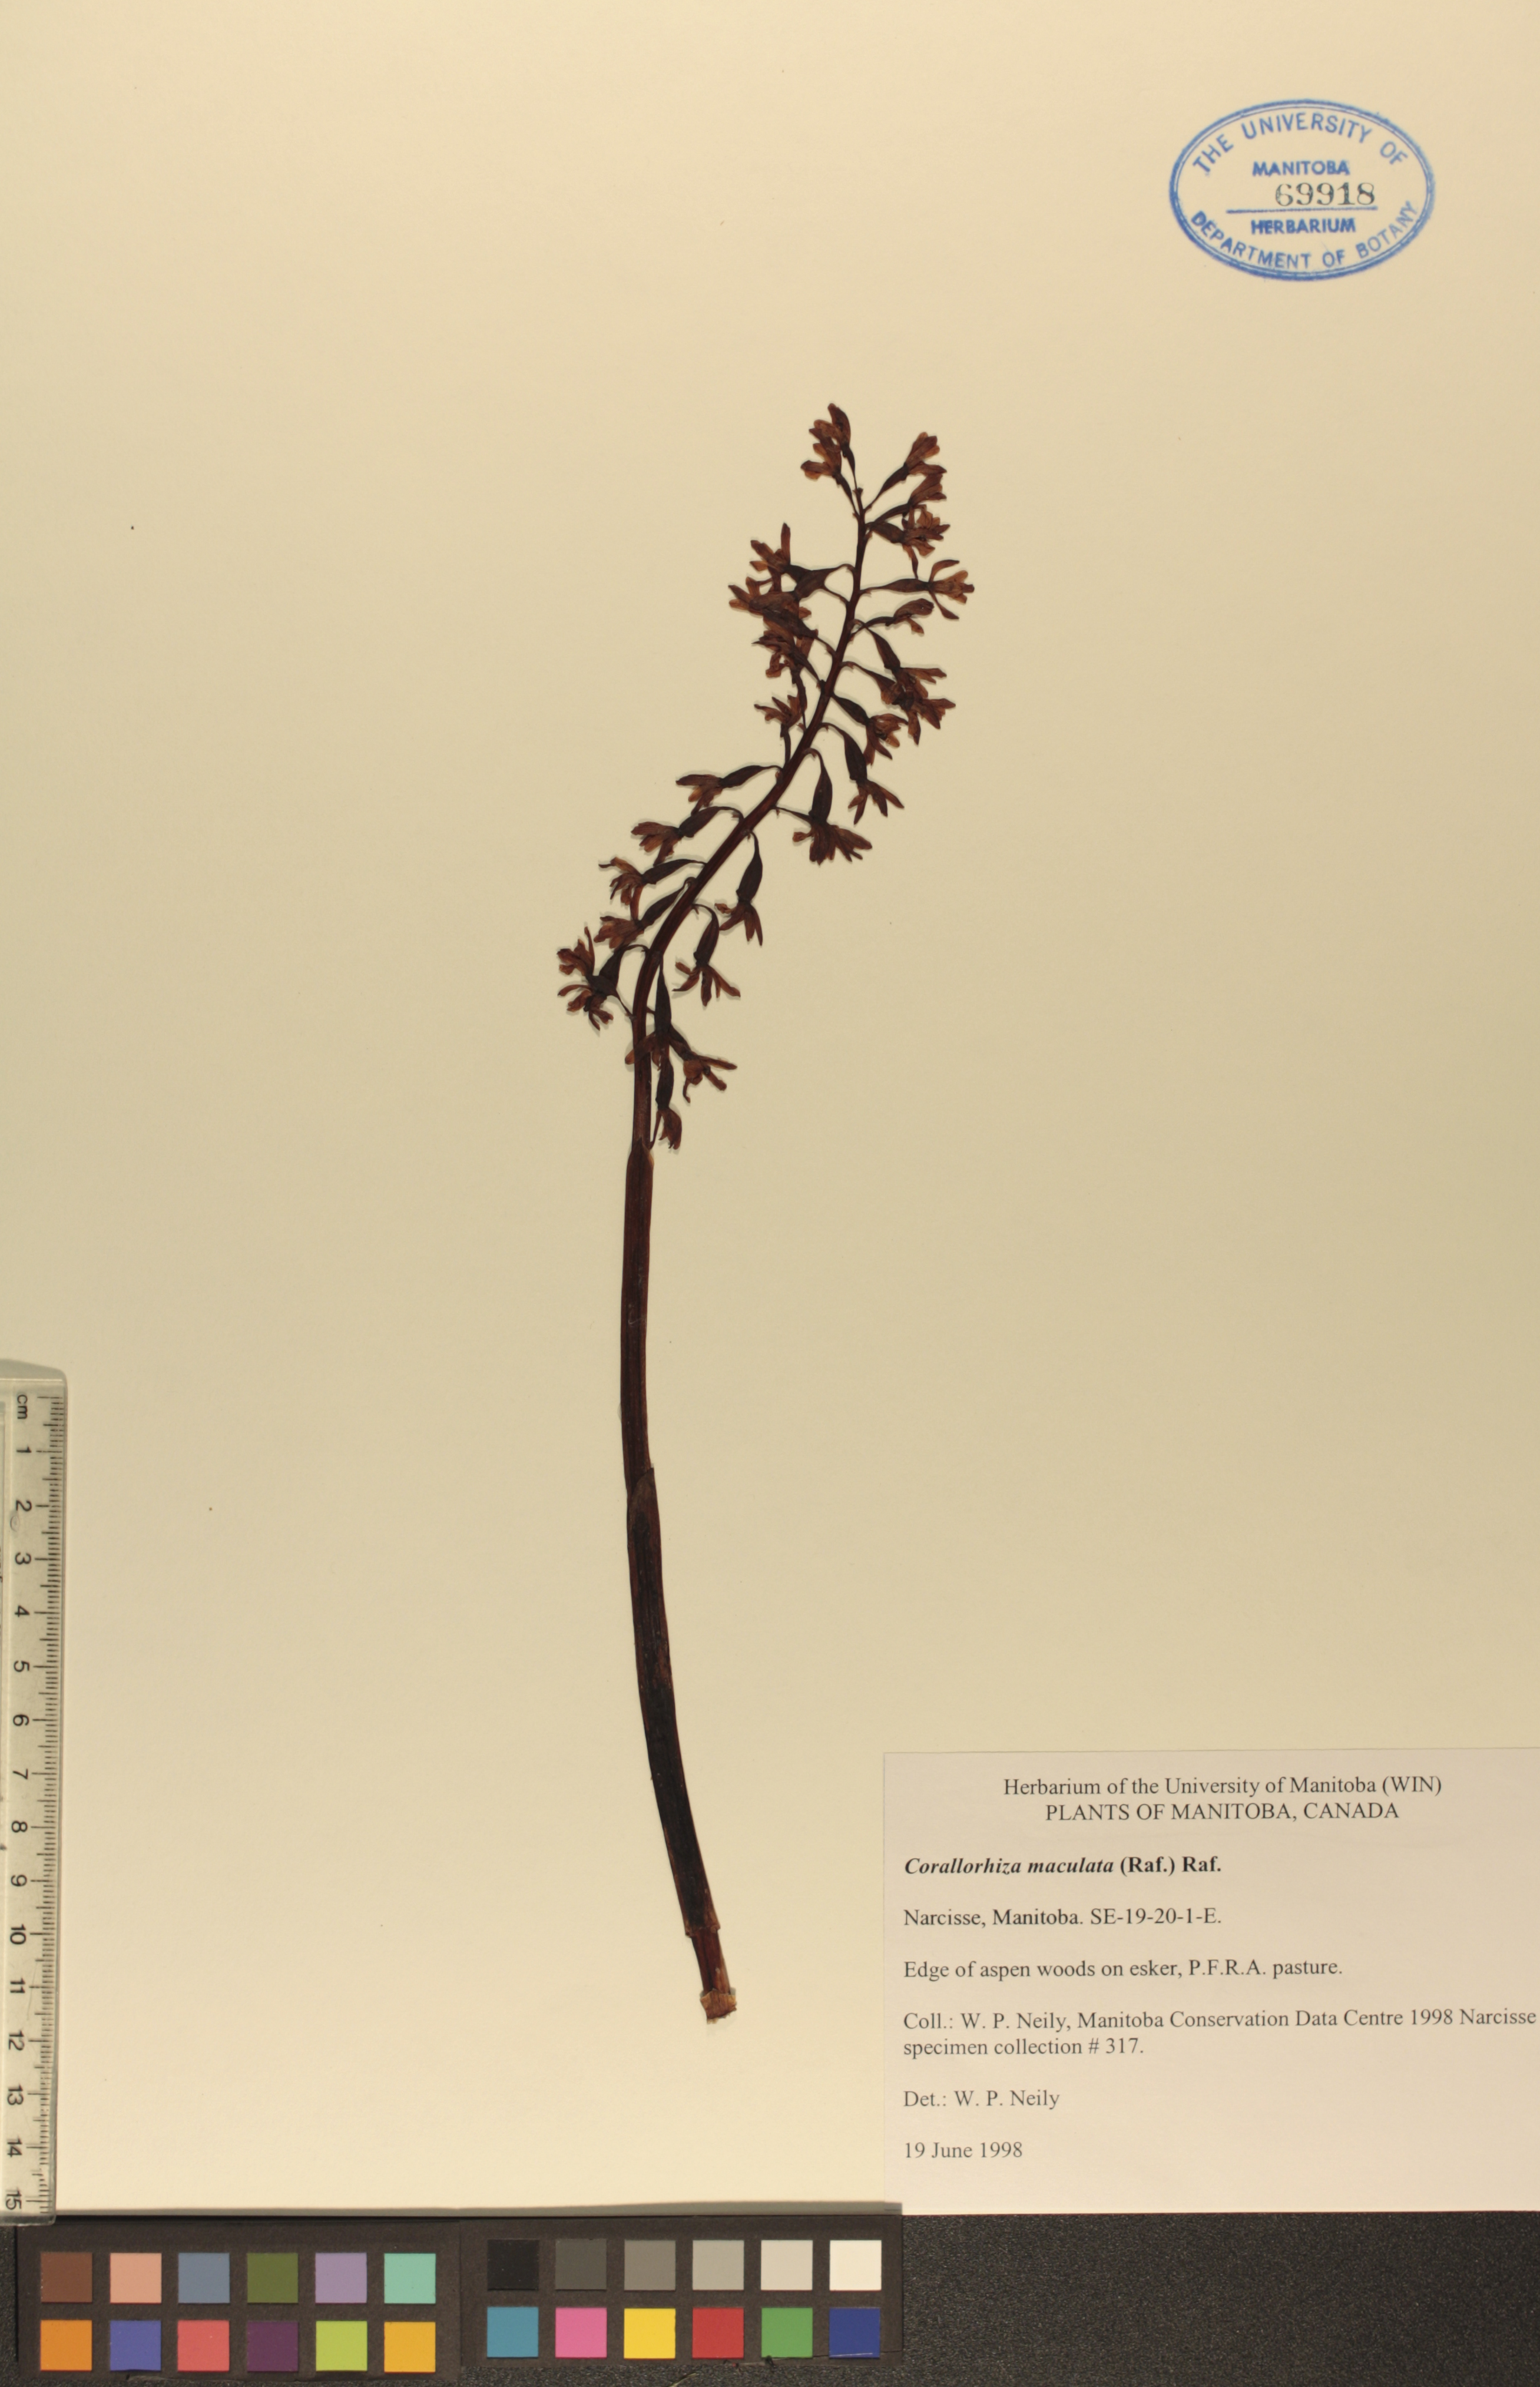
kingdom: Plantae
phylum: Tracheophyta
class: Liliopsida
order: Asparagales
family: Orchidaceae
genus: Corallorhiza
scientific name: Corallorhiza maculata
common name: Spotted coralroot
